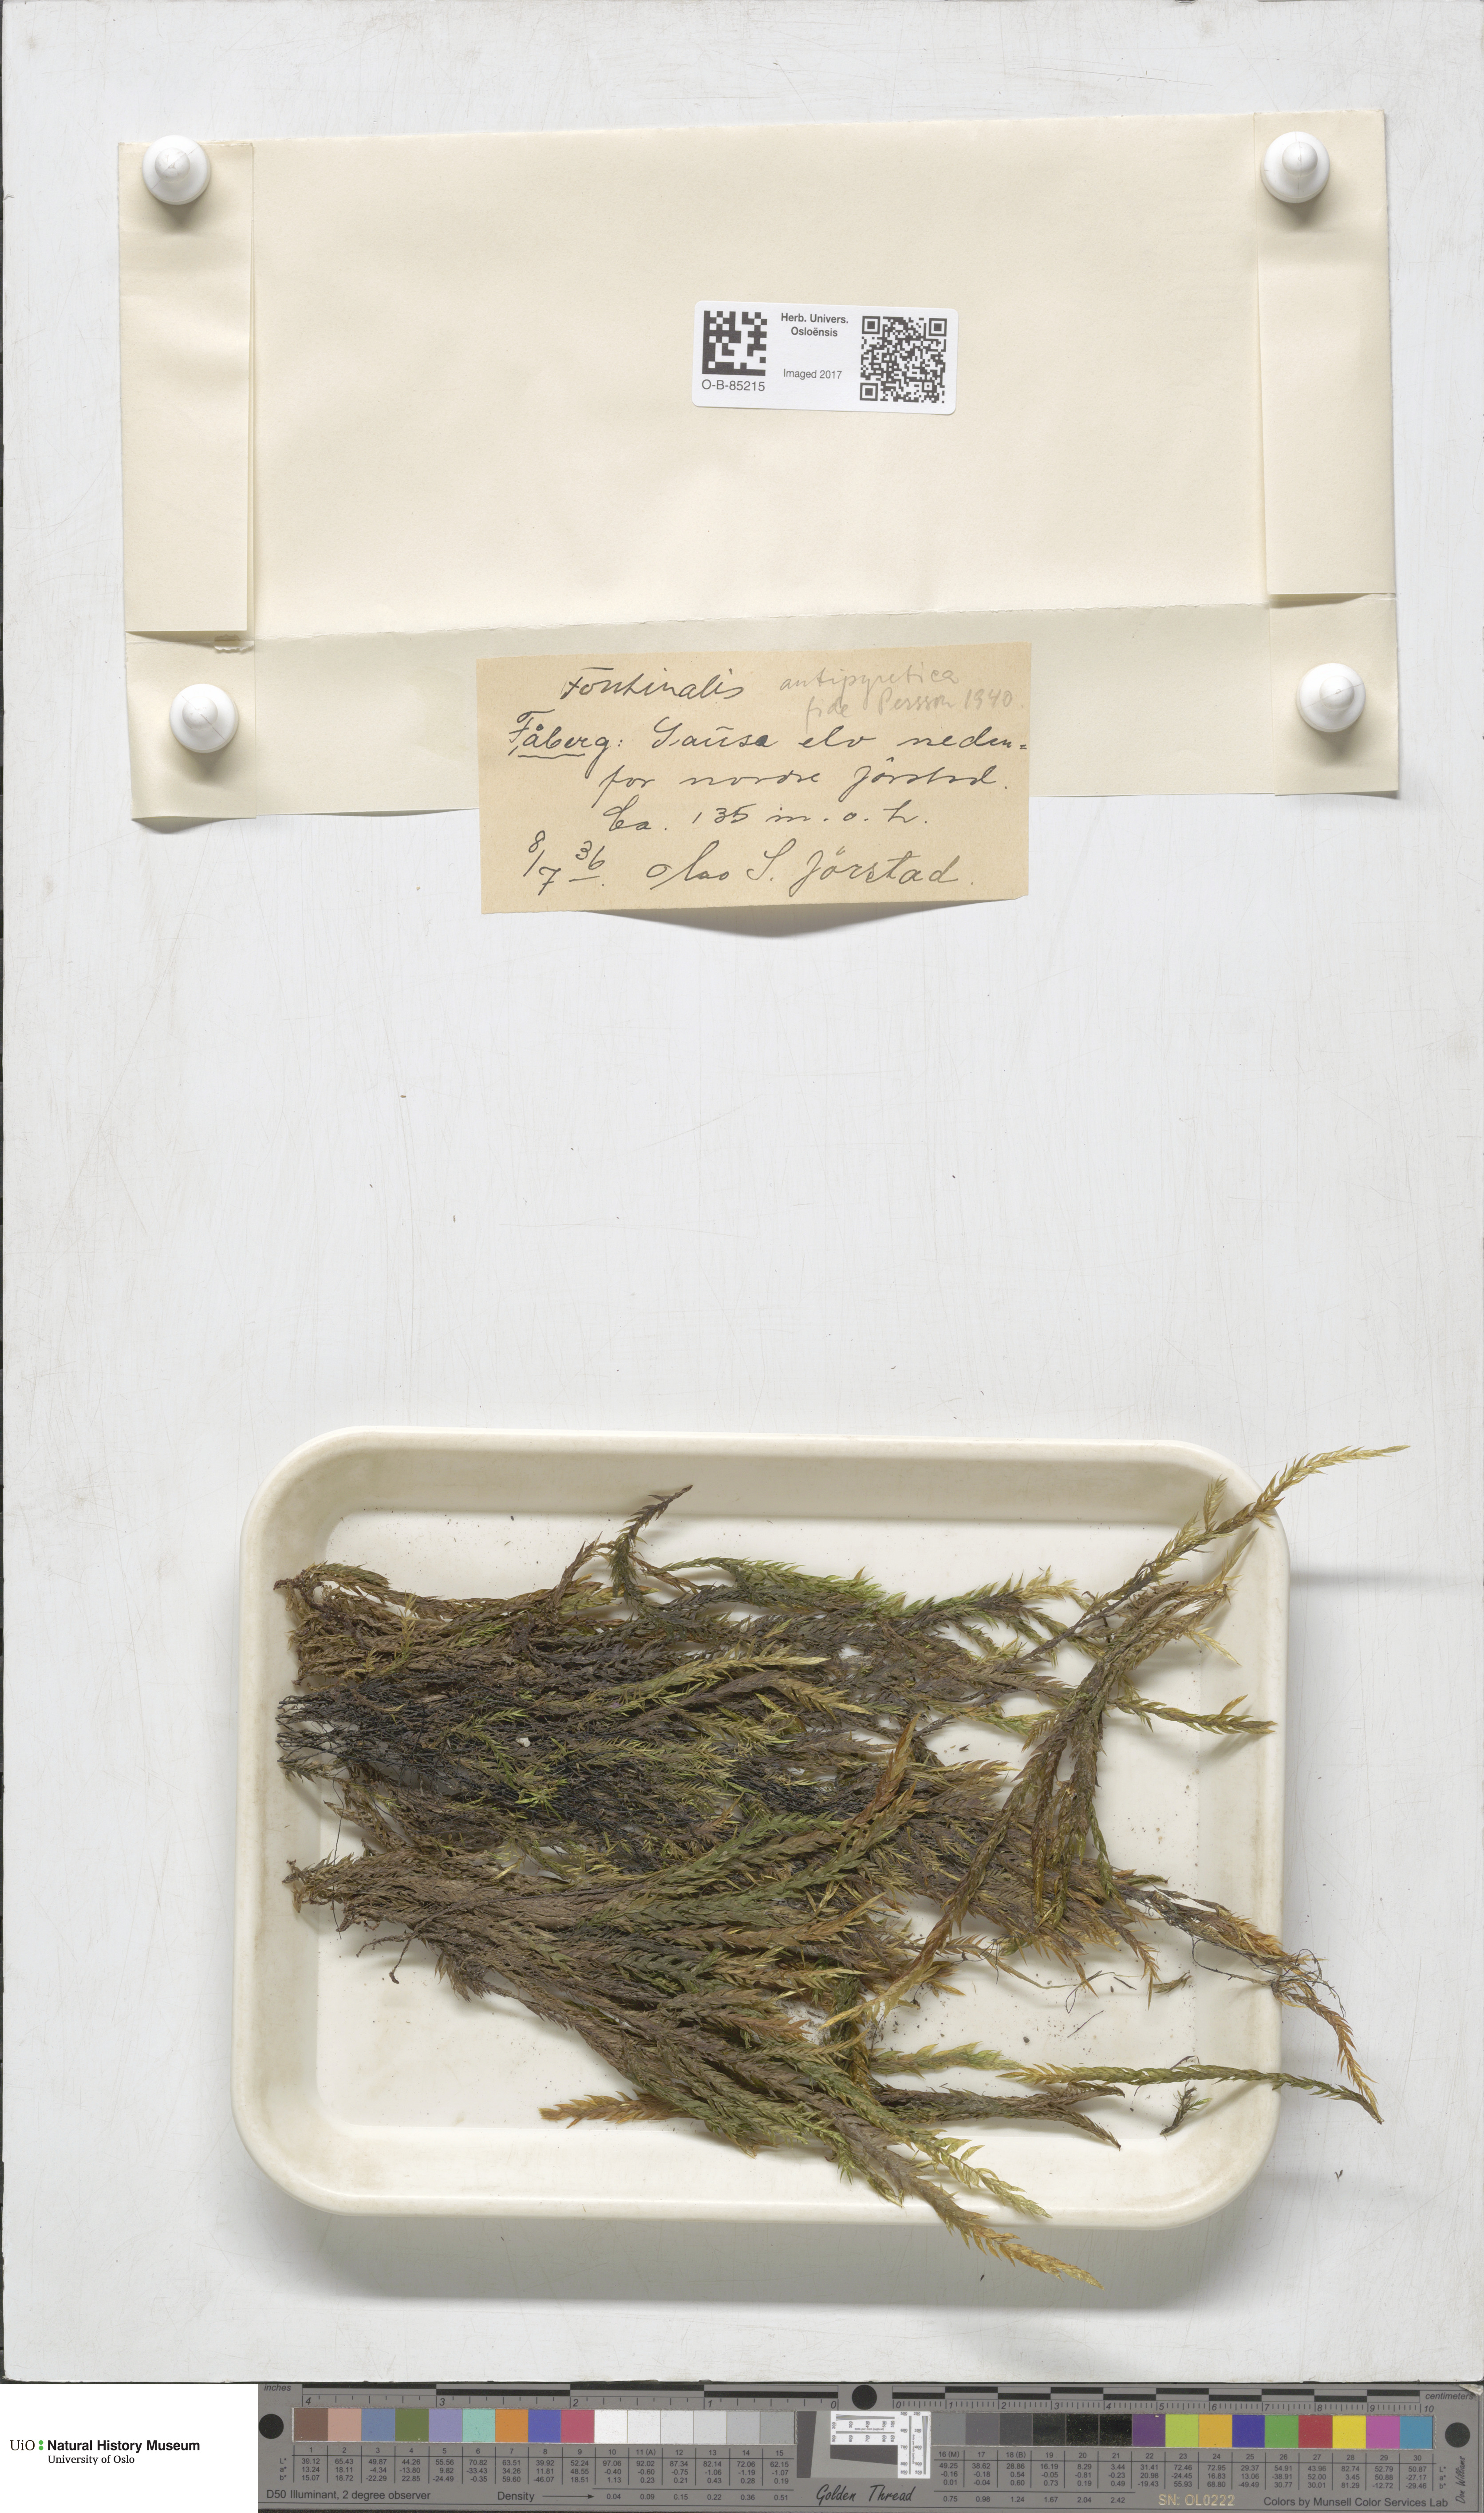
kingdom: Plantae
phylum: Bryophyta
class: Bryopsida
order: Hypnales
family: Fontinalaceae
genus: Fontinalis
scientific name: Fontinalis antipyretica
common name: Greater water-moss
